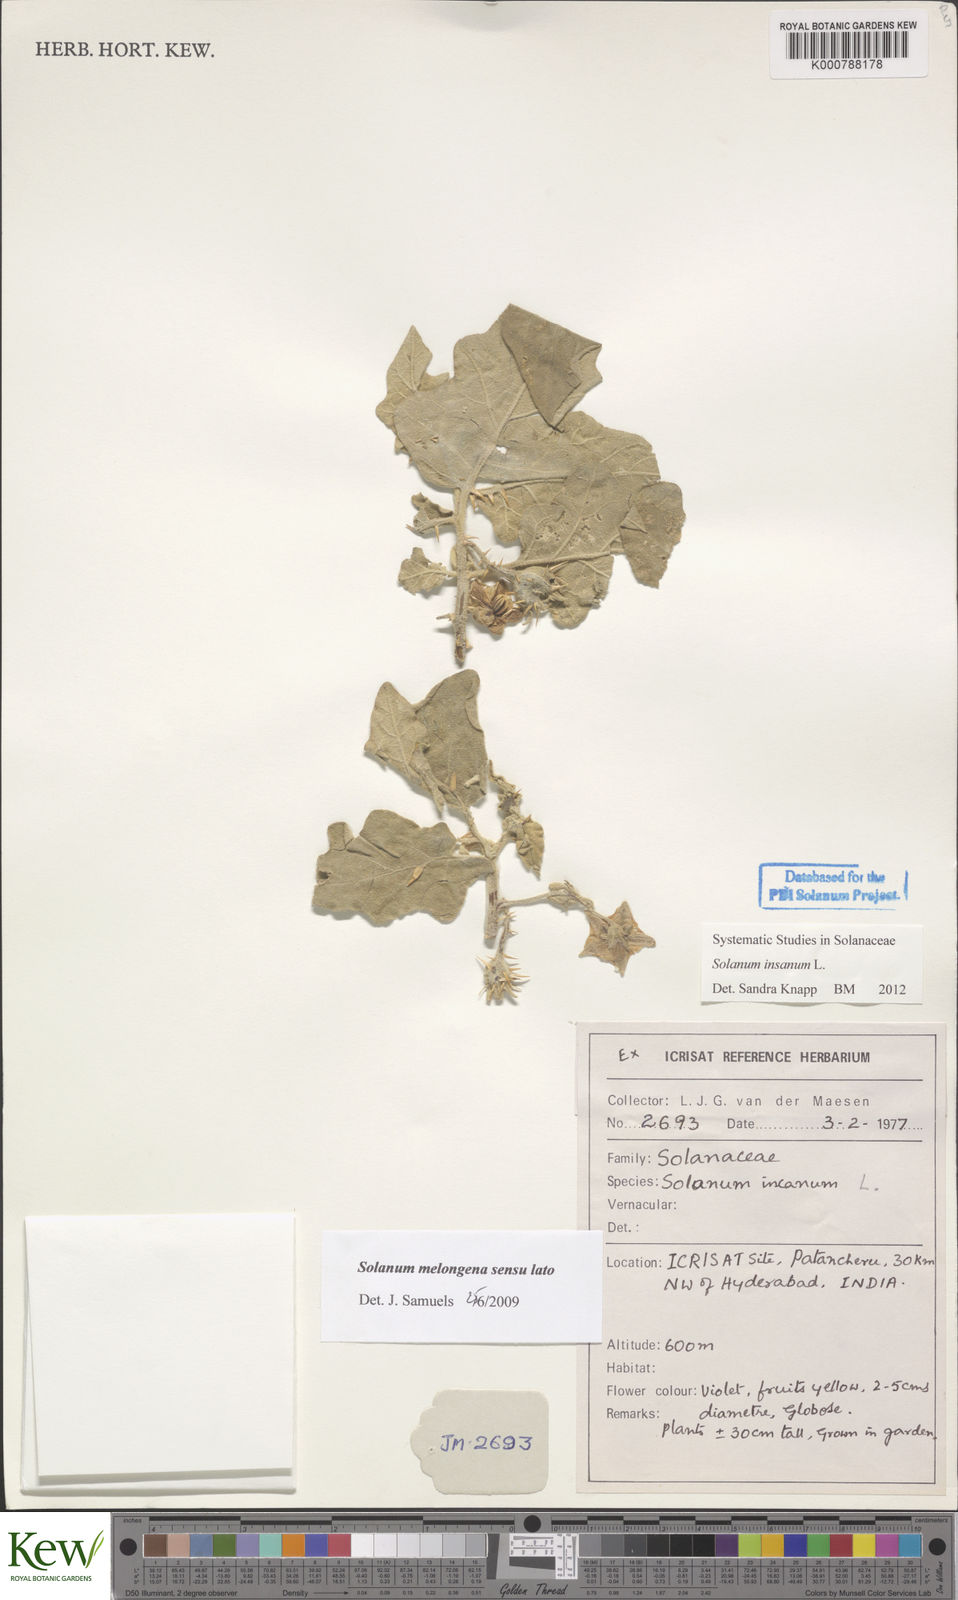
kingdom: Plantae
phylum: Tracheophyta
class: Magnoliopsida
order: Solanales
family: Solanaceae
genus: Solanum
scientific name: Solanum insanum
